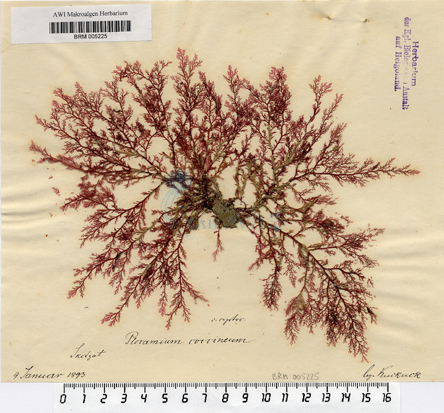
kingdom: Plantae
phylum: Rhodophyta
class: Florideophyceae
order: Plocamiales
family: Plocamiaceae
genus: Plocamium
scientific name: Plocamium cartilagineum
